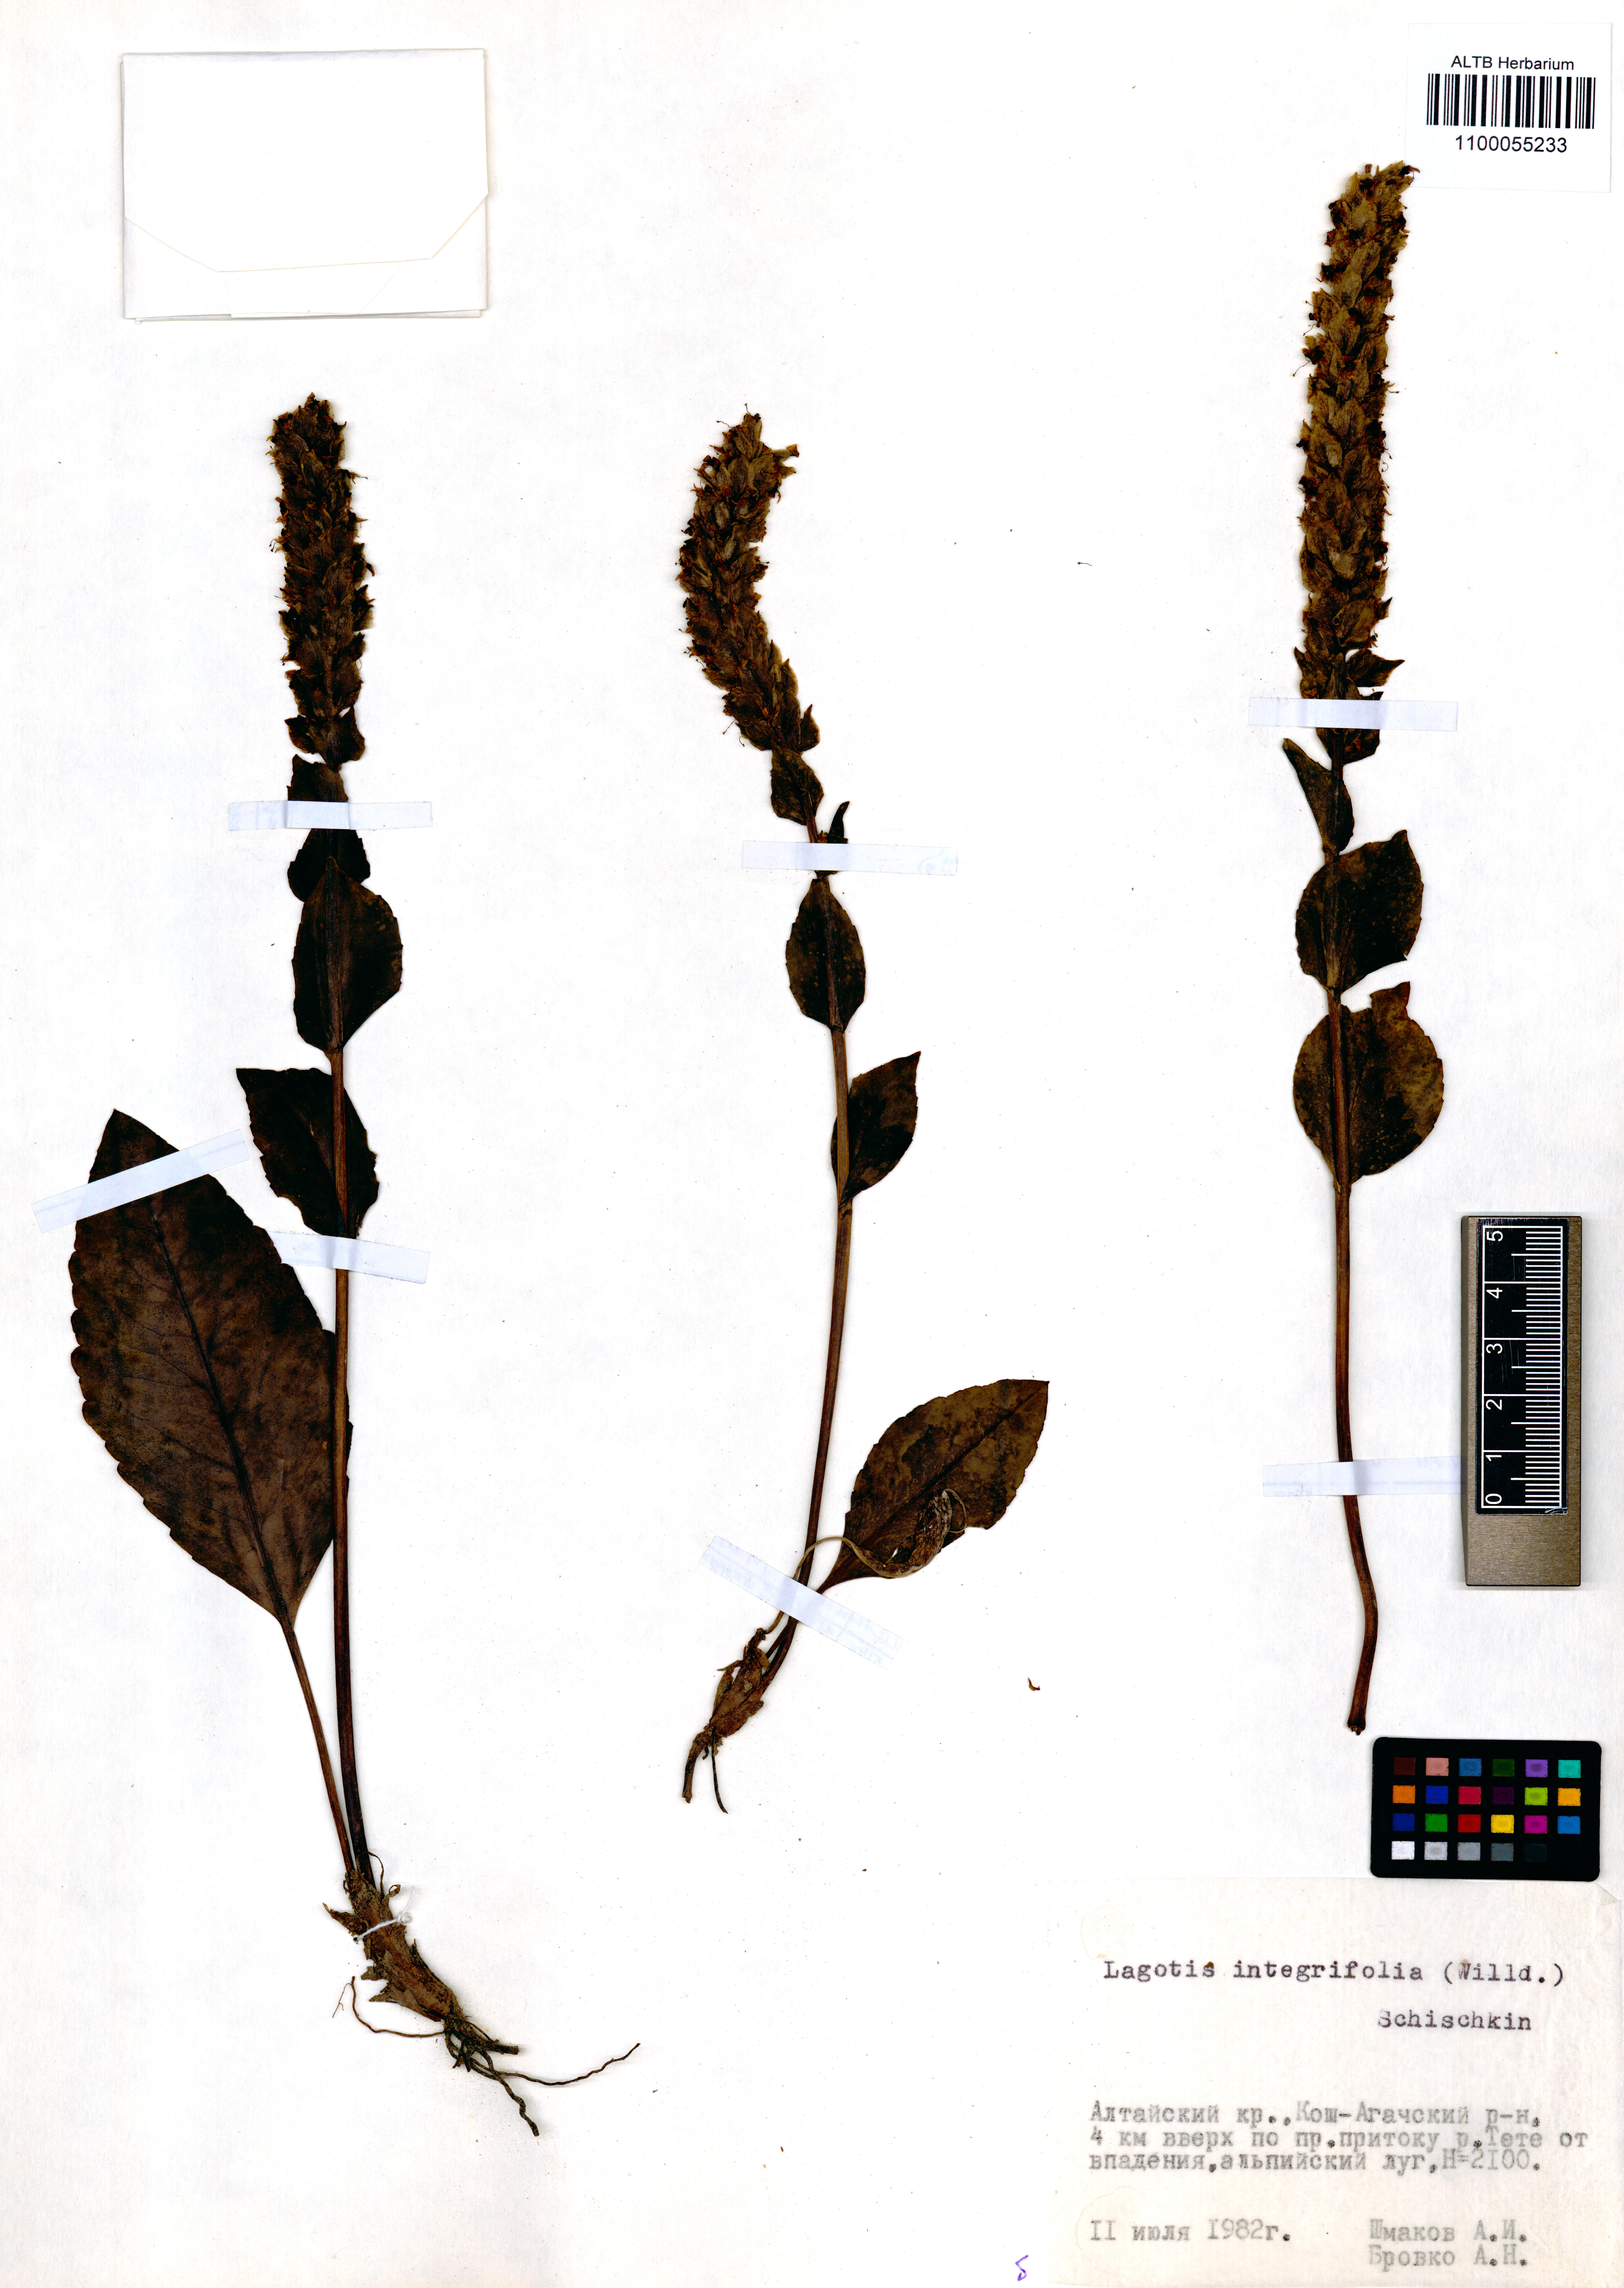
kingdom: Plantae
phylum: Tracheophyta
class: Magnoliopsida
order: Lamiales
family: Plantaginaceae
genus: Lagotis
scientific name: Lagotis integrifolia
